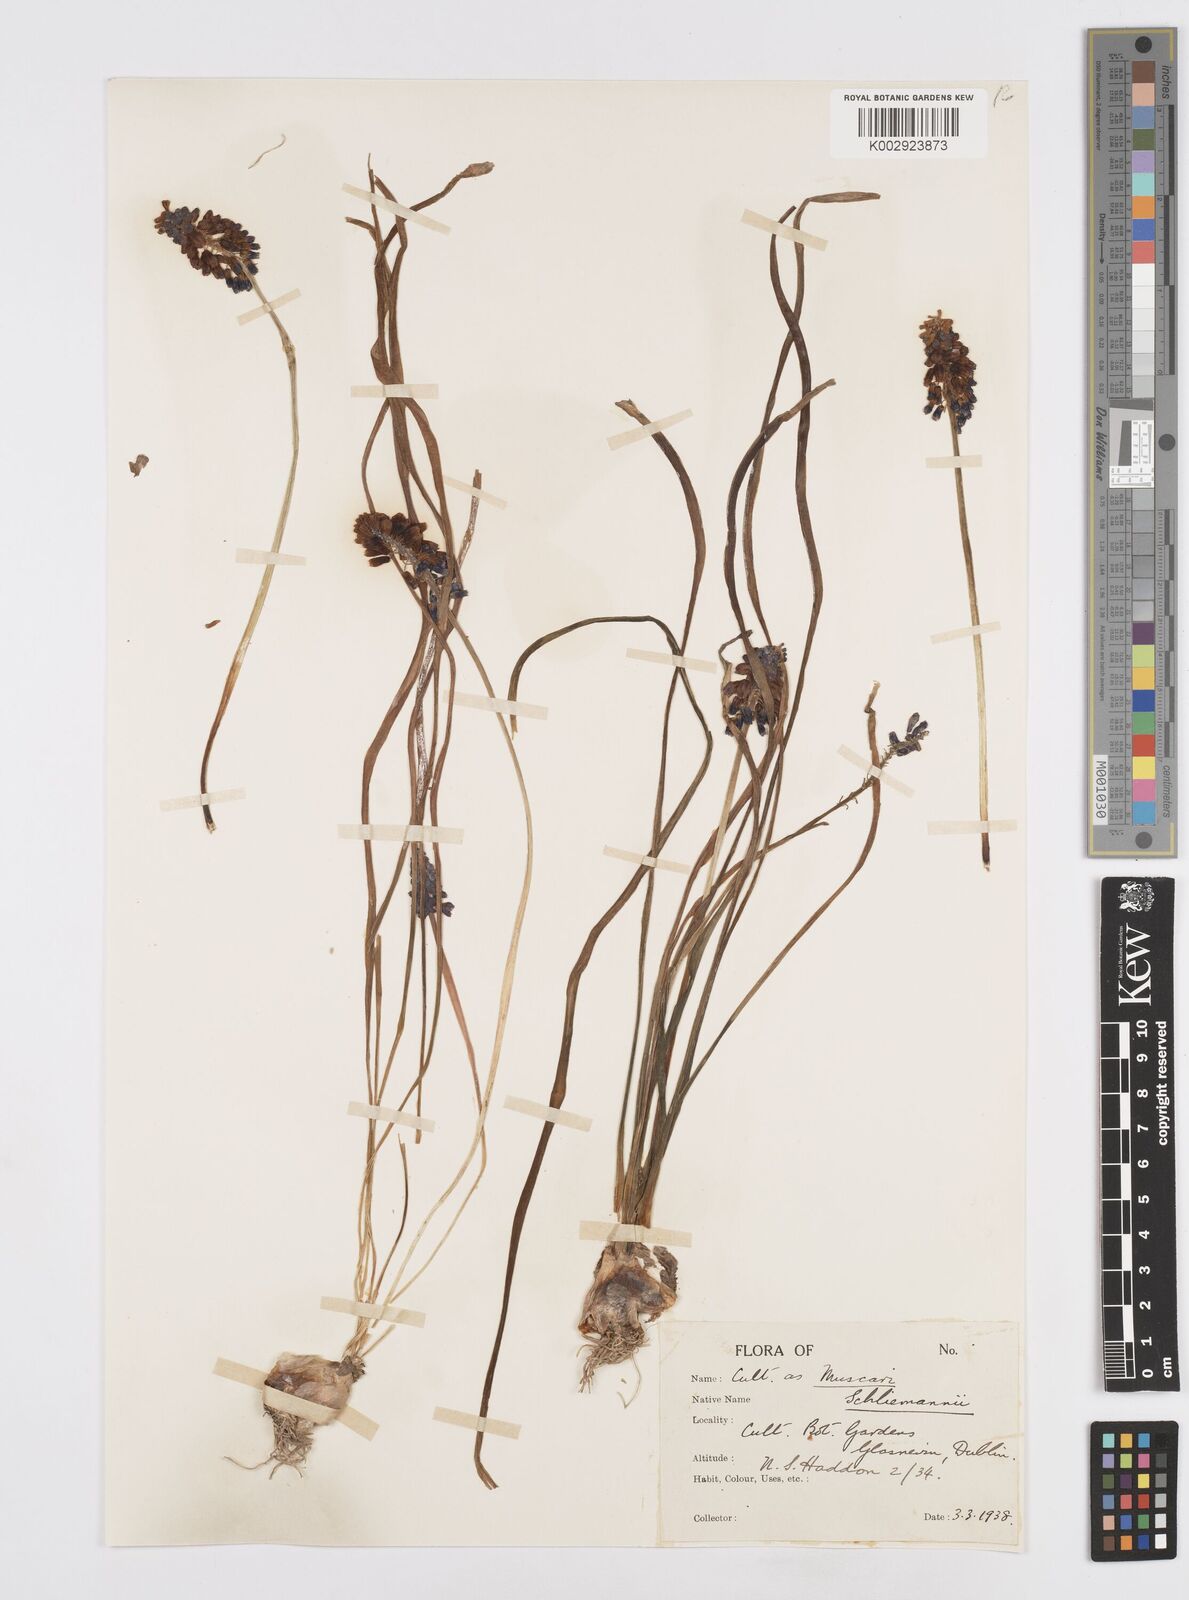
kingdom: Plantae
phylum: Tracheophyta
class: Liliopsida
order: Asparagales
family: Asparagaceae
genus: Muscari
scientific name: Muscari
